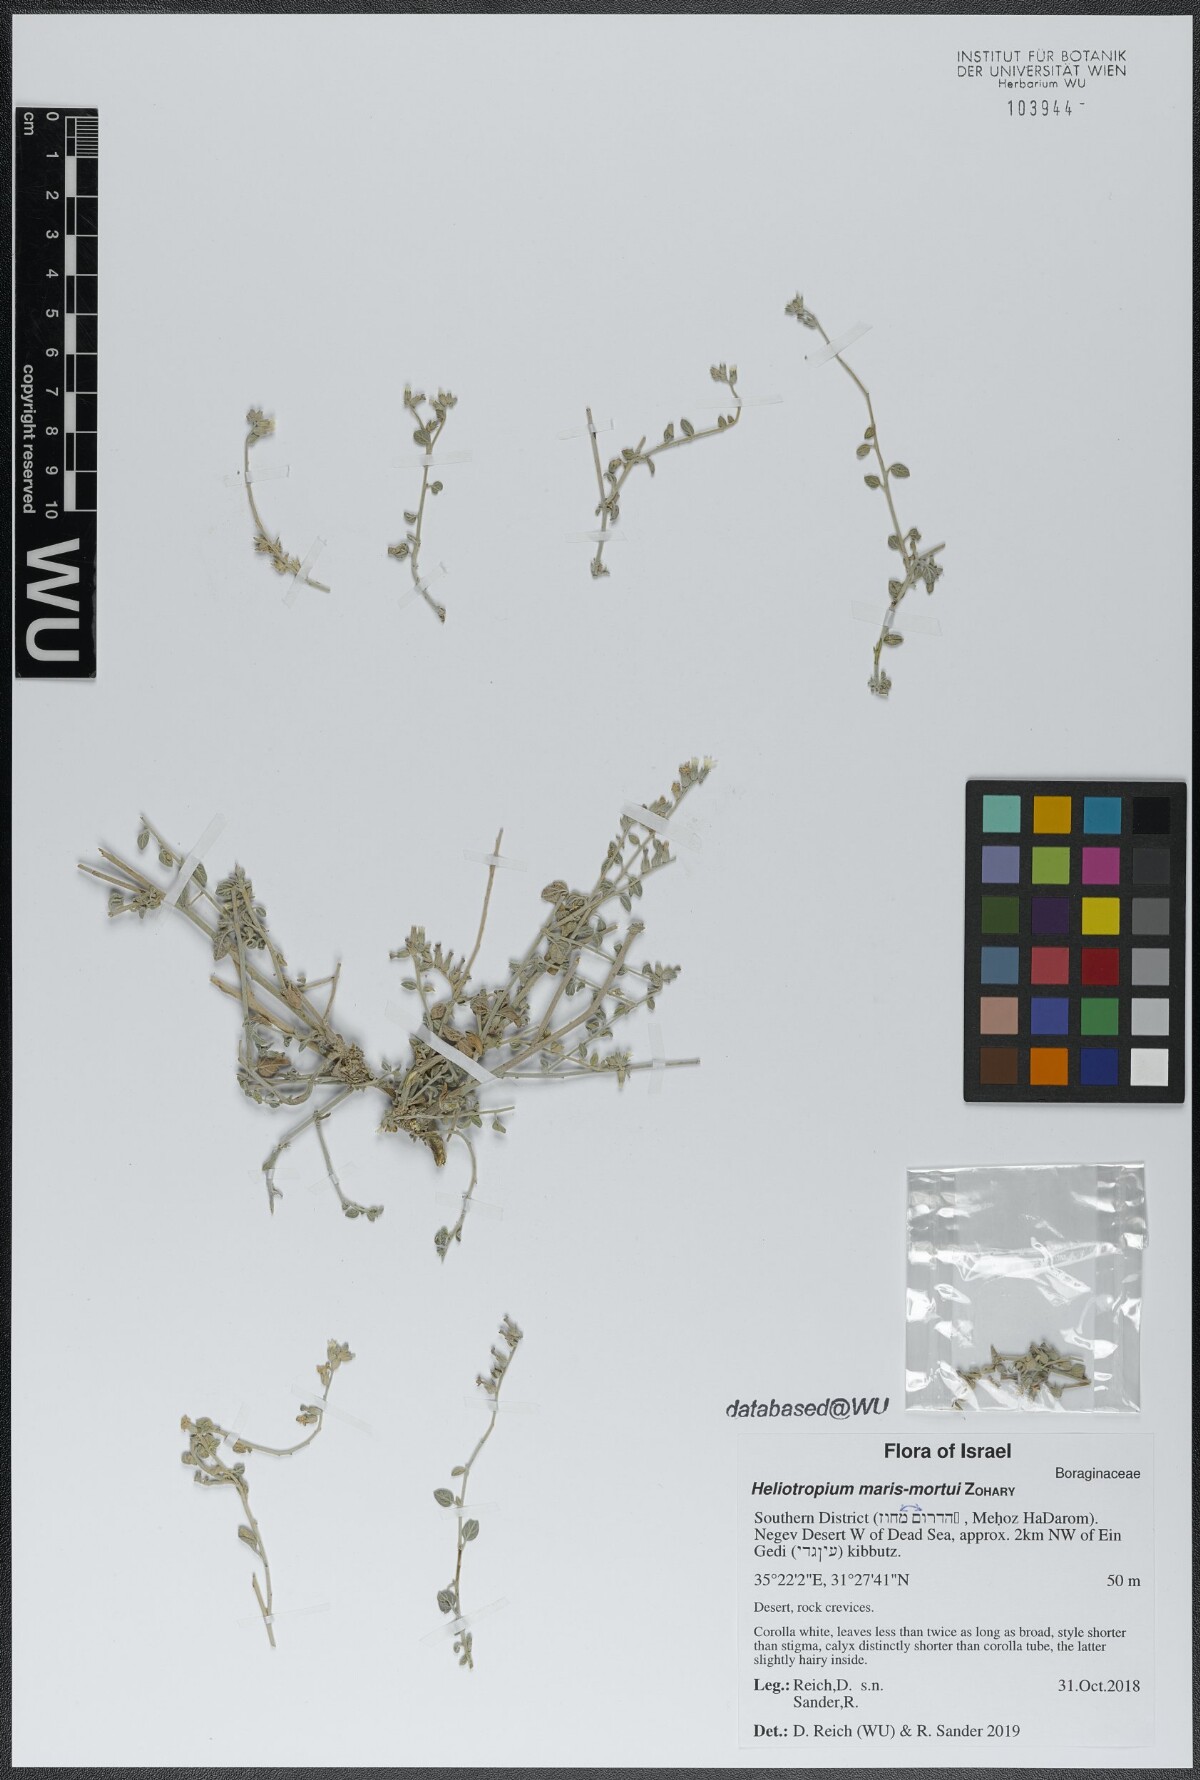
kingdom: Plantae
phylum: Tracheophyta
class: Magnoliopsida
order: Boraginales
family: Heliotropiaceae
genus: Heliotropium
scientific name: Heliotropium maris-mortui
